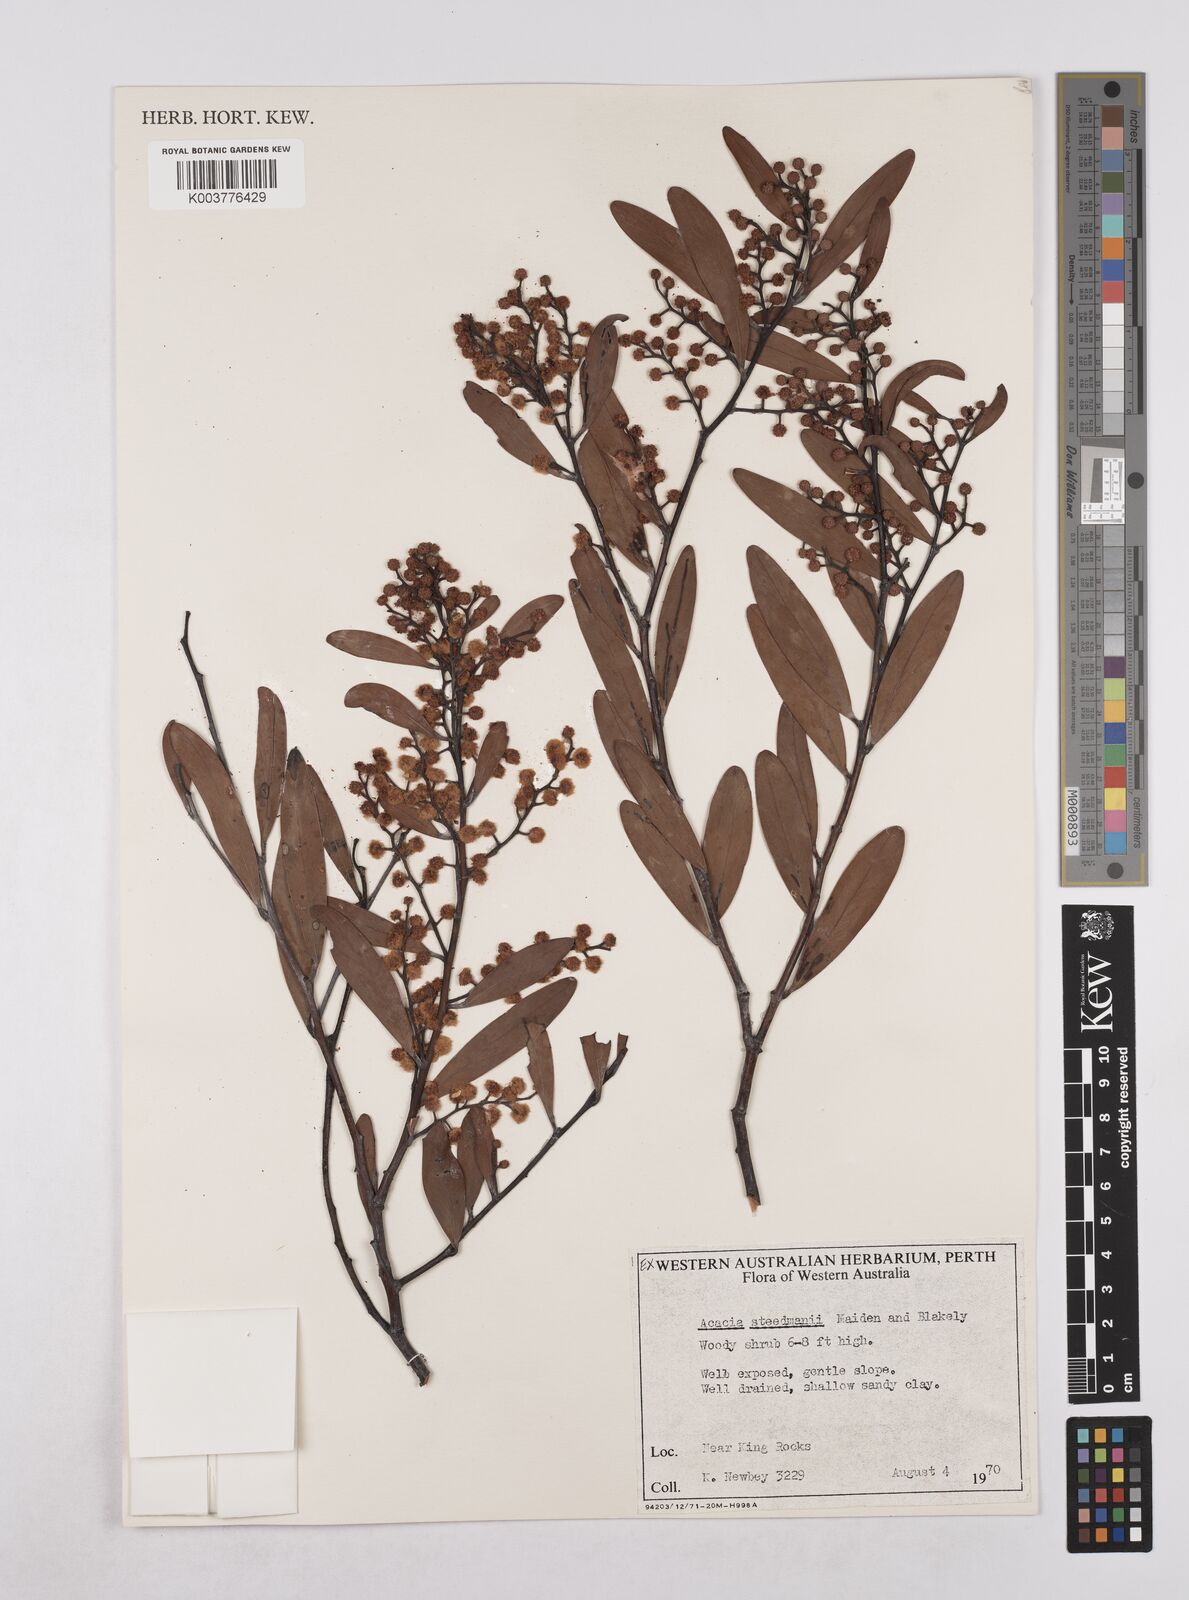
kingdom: Plantae
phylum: Tracheophyta
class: Magnoliopsida
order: Fabales
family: Fabaceae
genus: Acacia
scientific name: Acacia steedmanii
